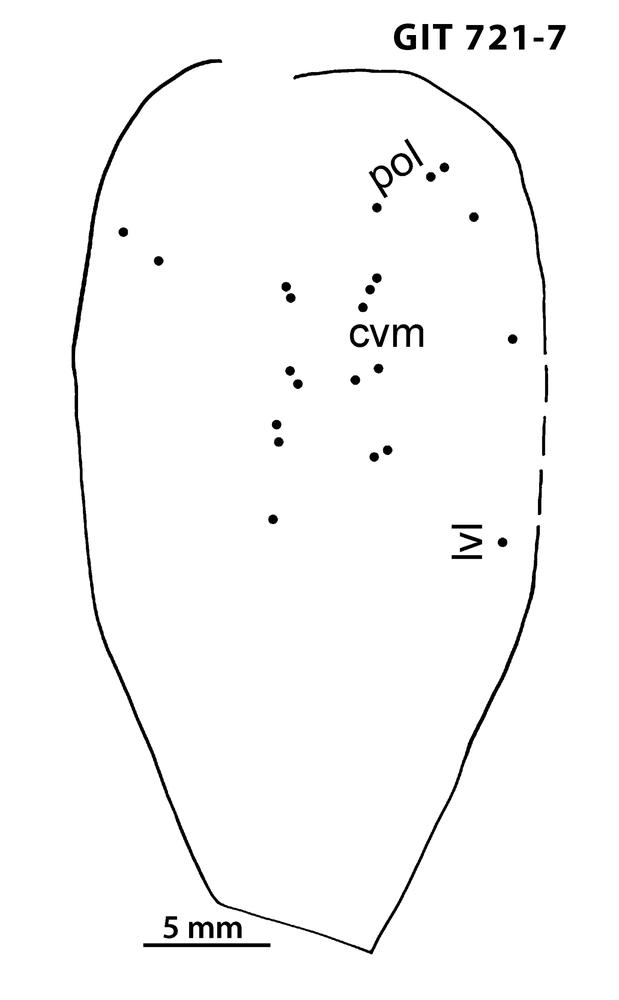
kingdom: Animalia
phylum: Chordata
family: Tolypelepididae
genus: Tolypelepis
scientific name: Tolypelepis
